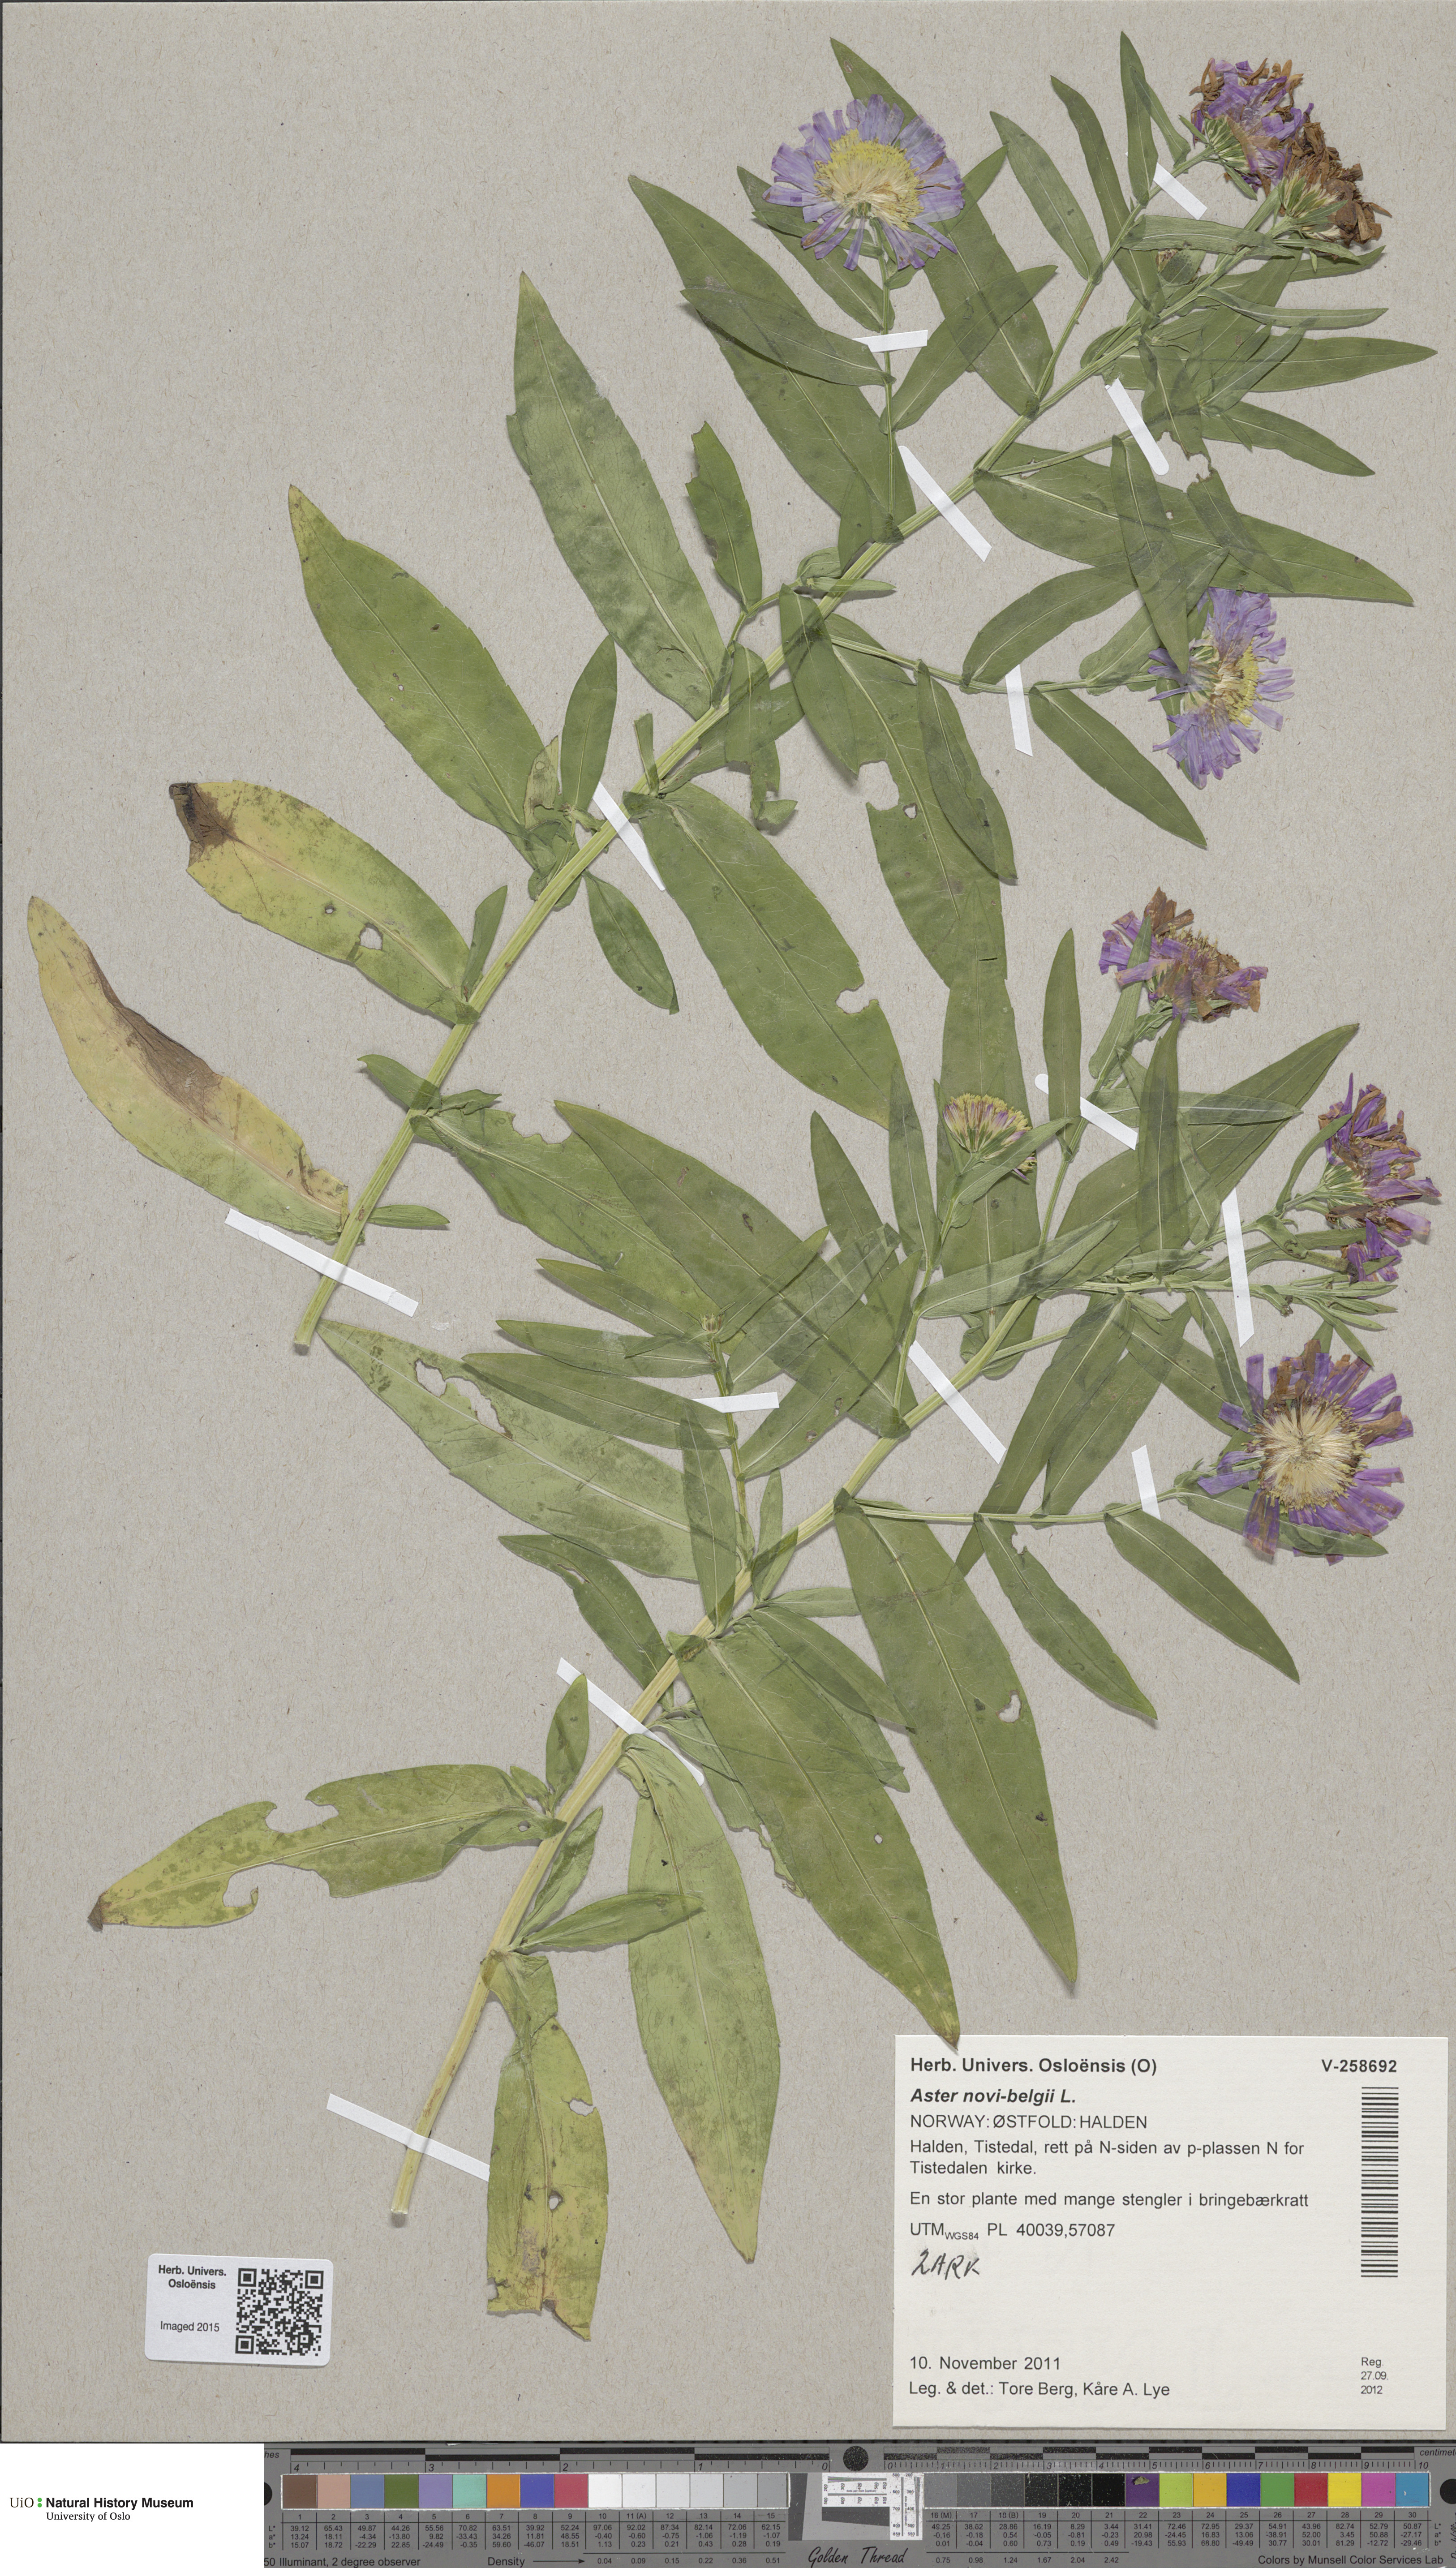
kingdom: Plantae
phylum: Tracheophyta
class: Magnoliopsida
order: Asterales
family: Asteraceae
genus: Symphyotrichum
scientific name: Symphyotrichum
